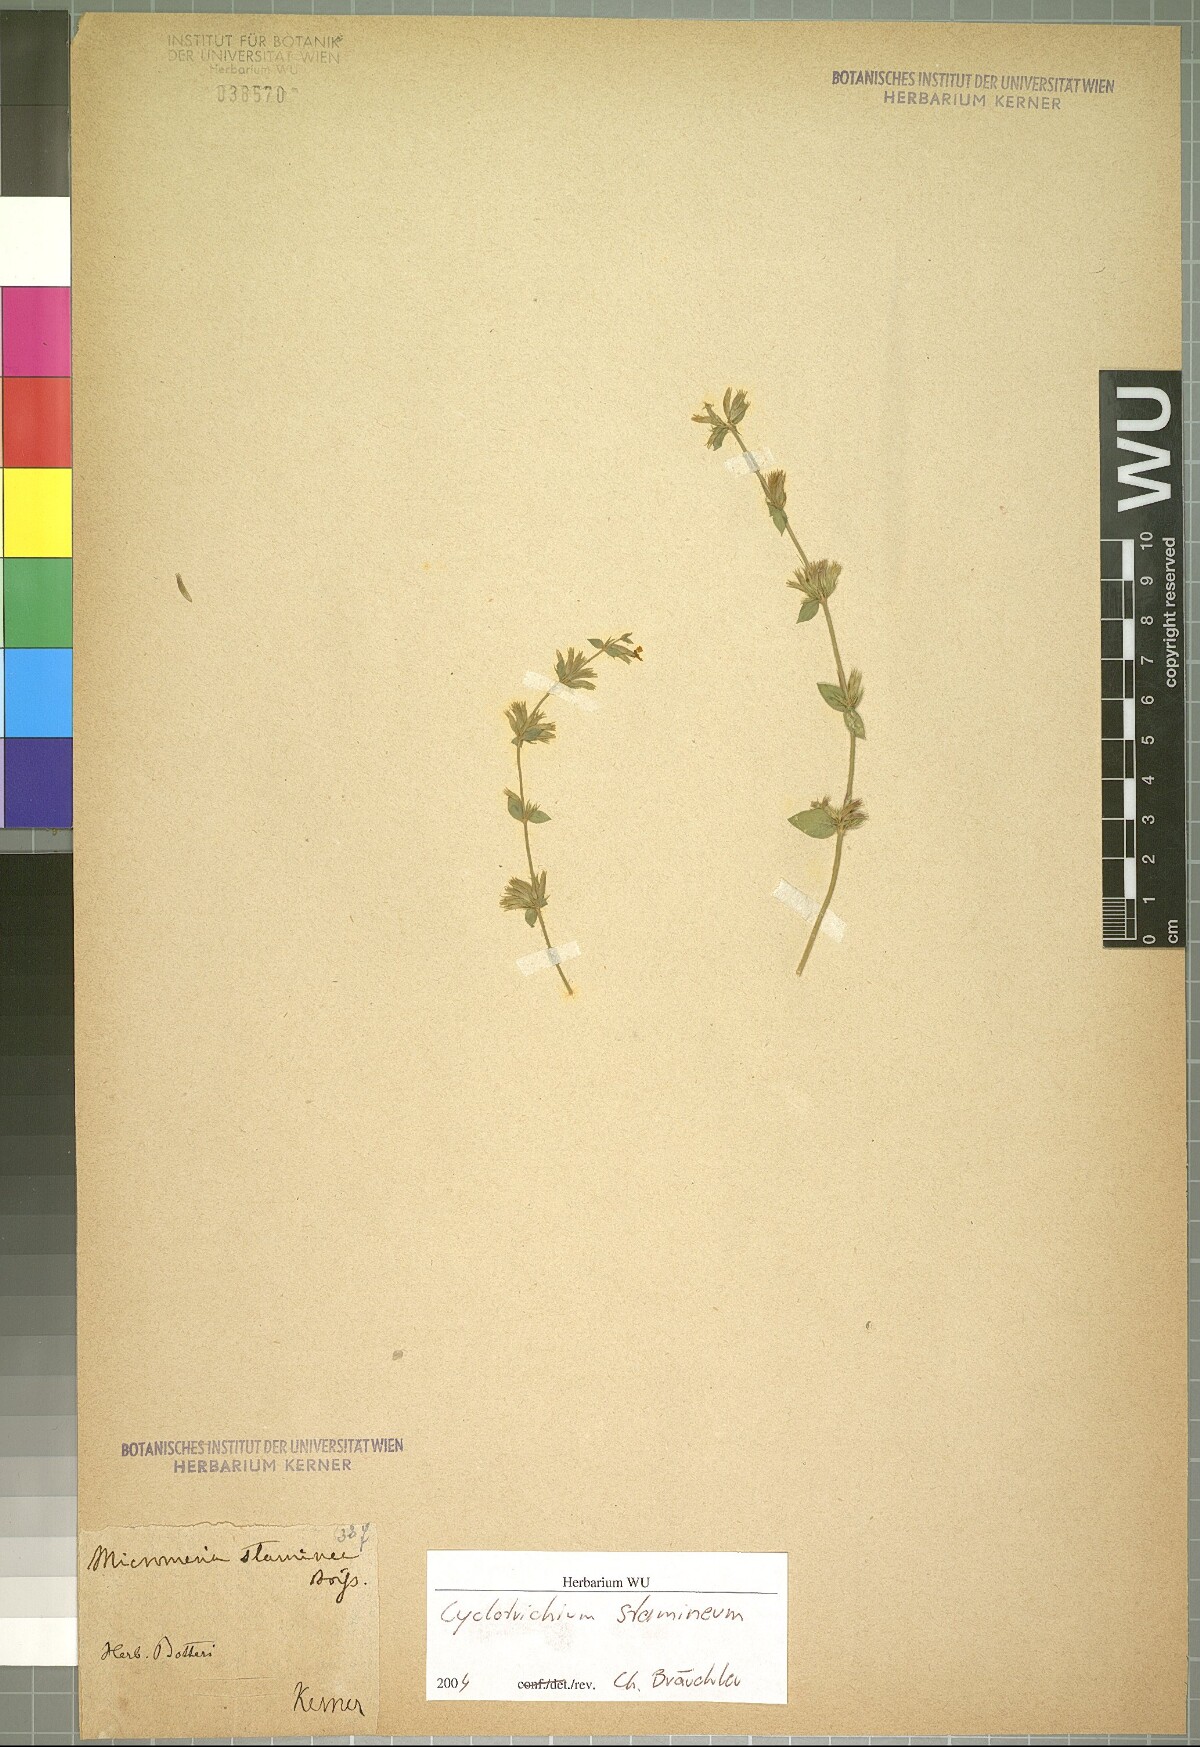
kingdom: Plantae
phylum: Tracheophyta
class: Magnoliopsida
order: Lamiales
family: Lamiaceae
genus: Cyclotrichium
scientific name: Cyclotrichium stamineum
